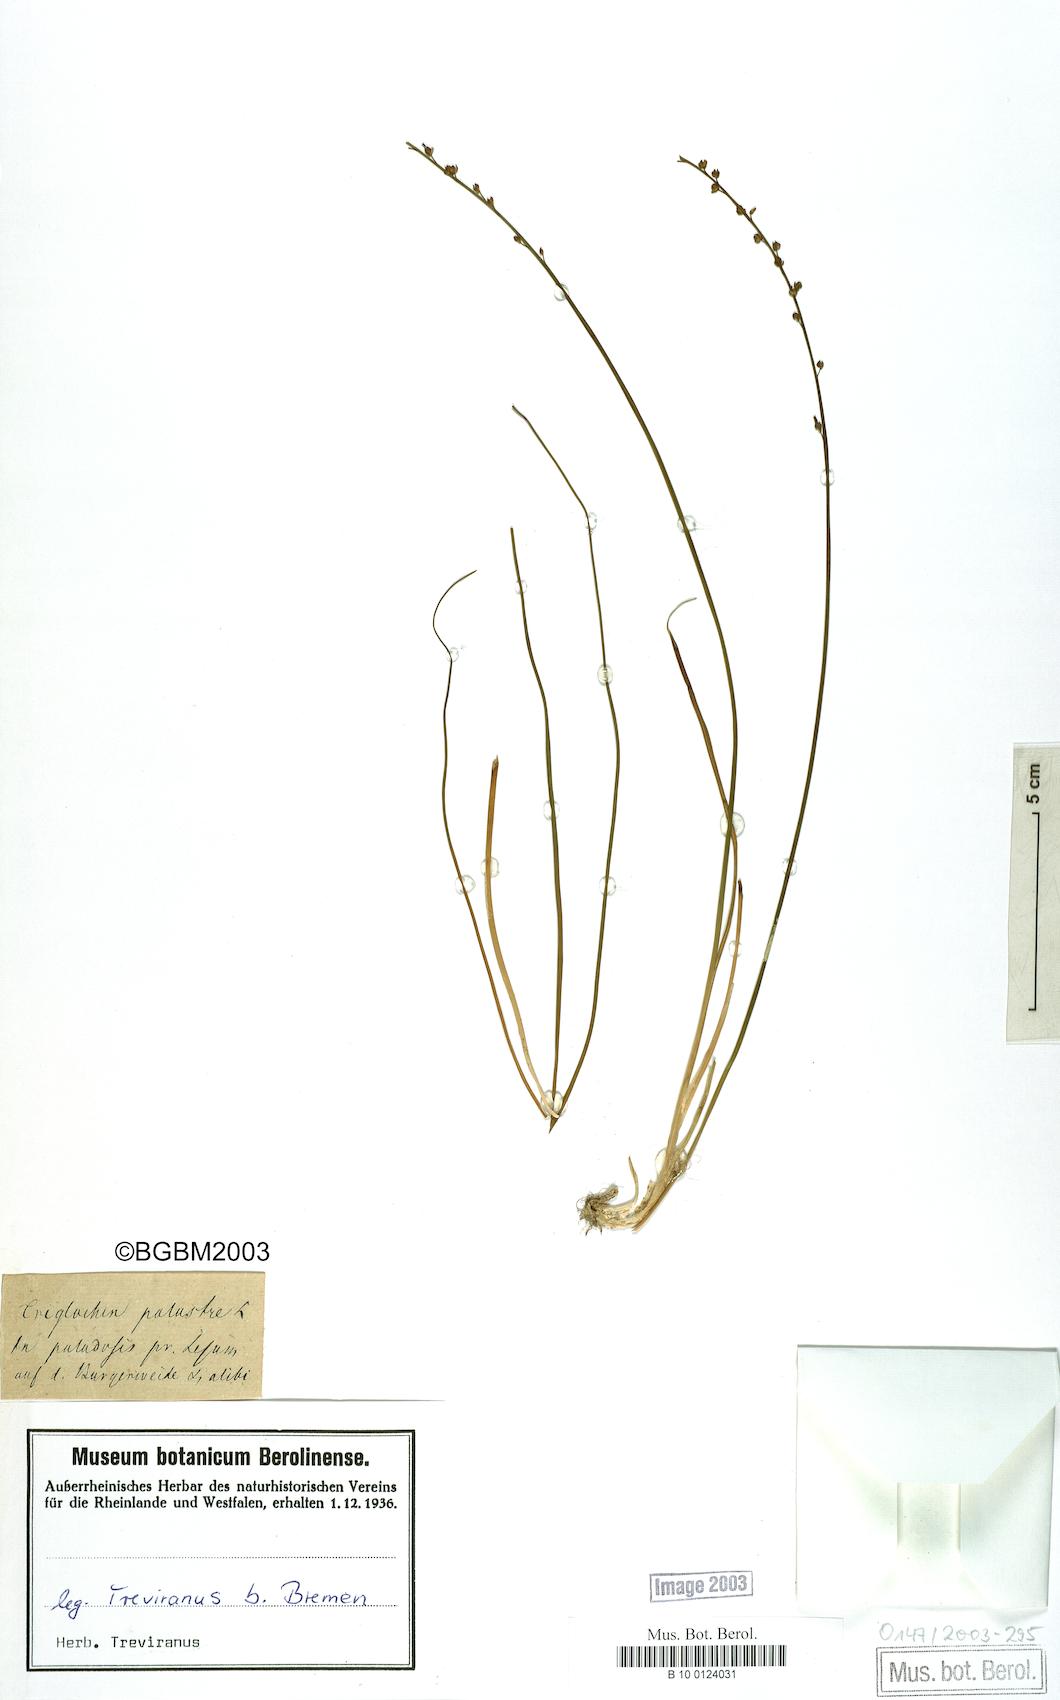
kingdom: Plantae
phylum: Tracheophyta
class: Liliopsida
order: Alismatales
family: Juncaginaceae
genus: Triglochin
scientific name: Triglochin palustris
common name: Marsh arrowgrass
